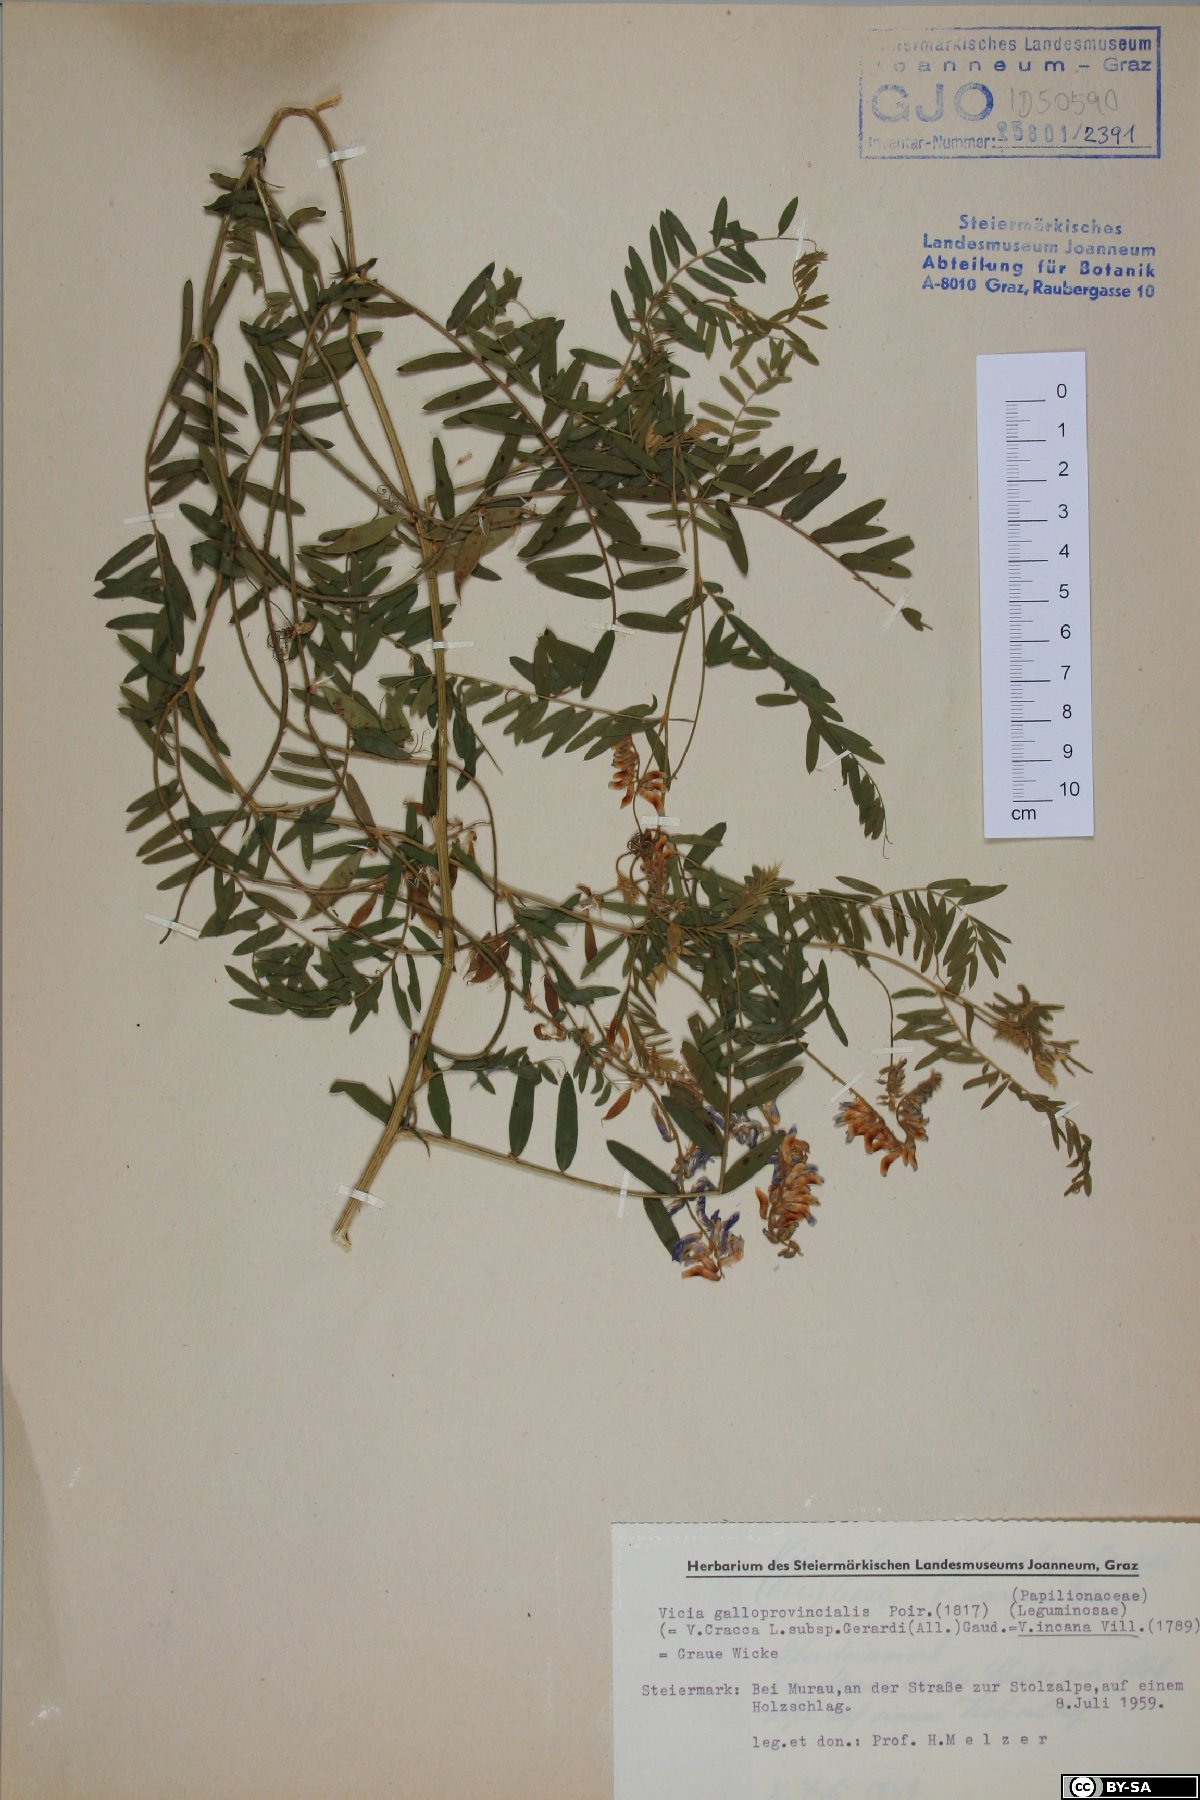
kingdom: Plantae
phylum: Tracheophyta
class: Magnoliopsida
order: Fabales
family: Fabaceae
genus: Vicia
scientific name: Vicia incana
